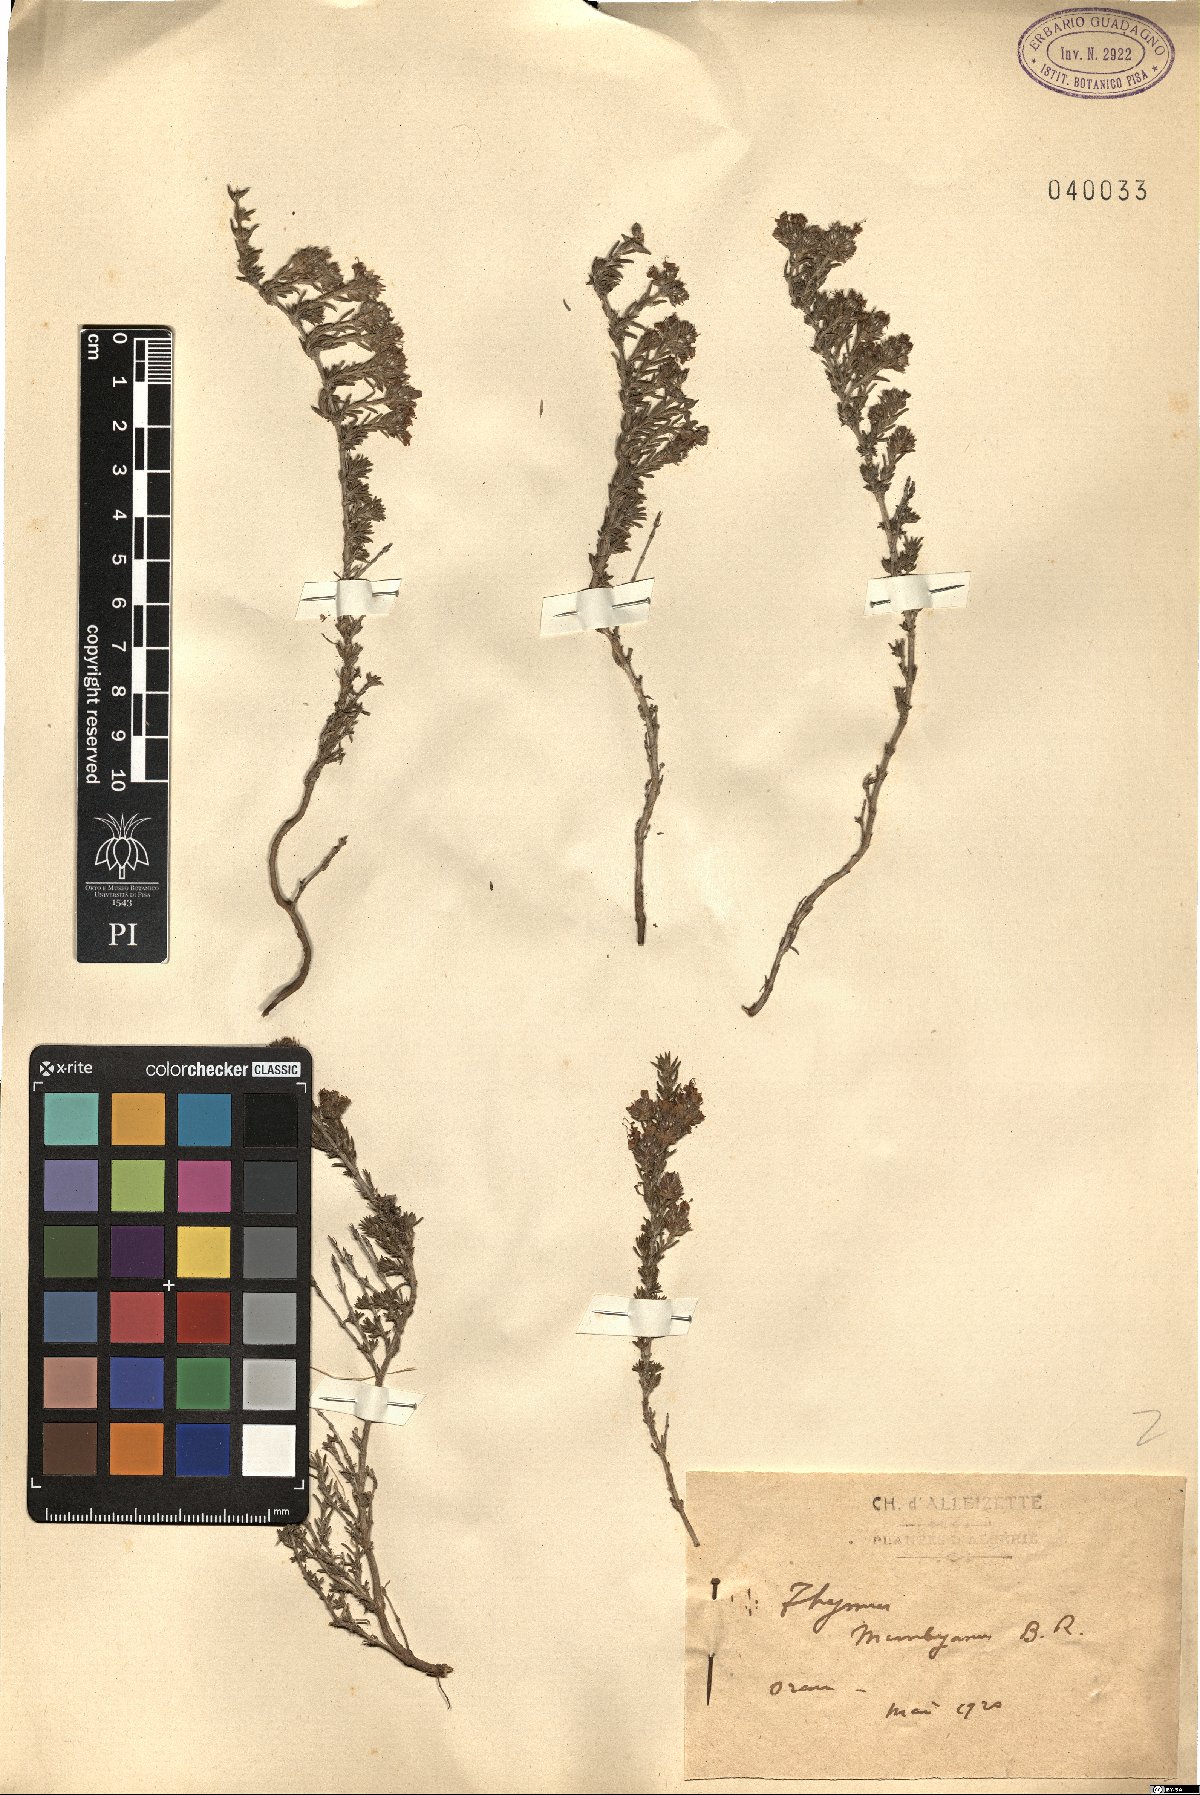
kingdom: Plantae
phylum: Tracheophyta
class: Magnoliopsida
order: Lamiales
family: Lamiaceae
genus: Thymus
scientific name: Thymus munbyanus
